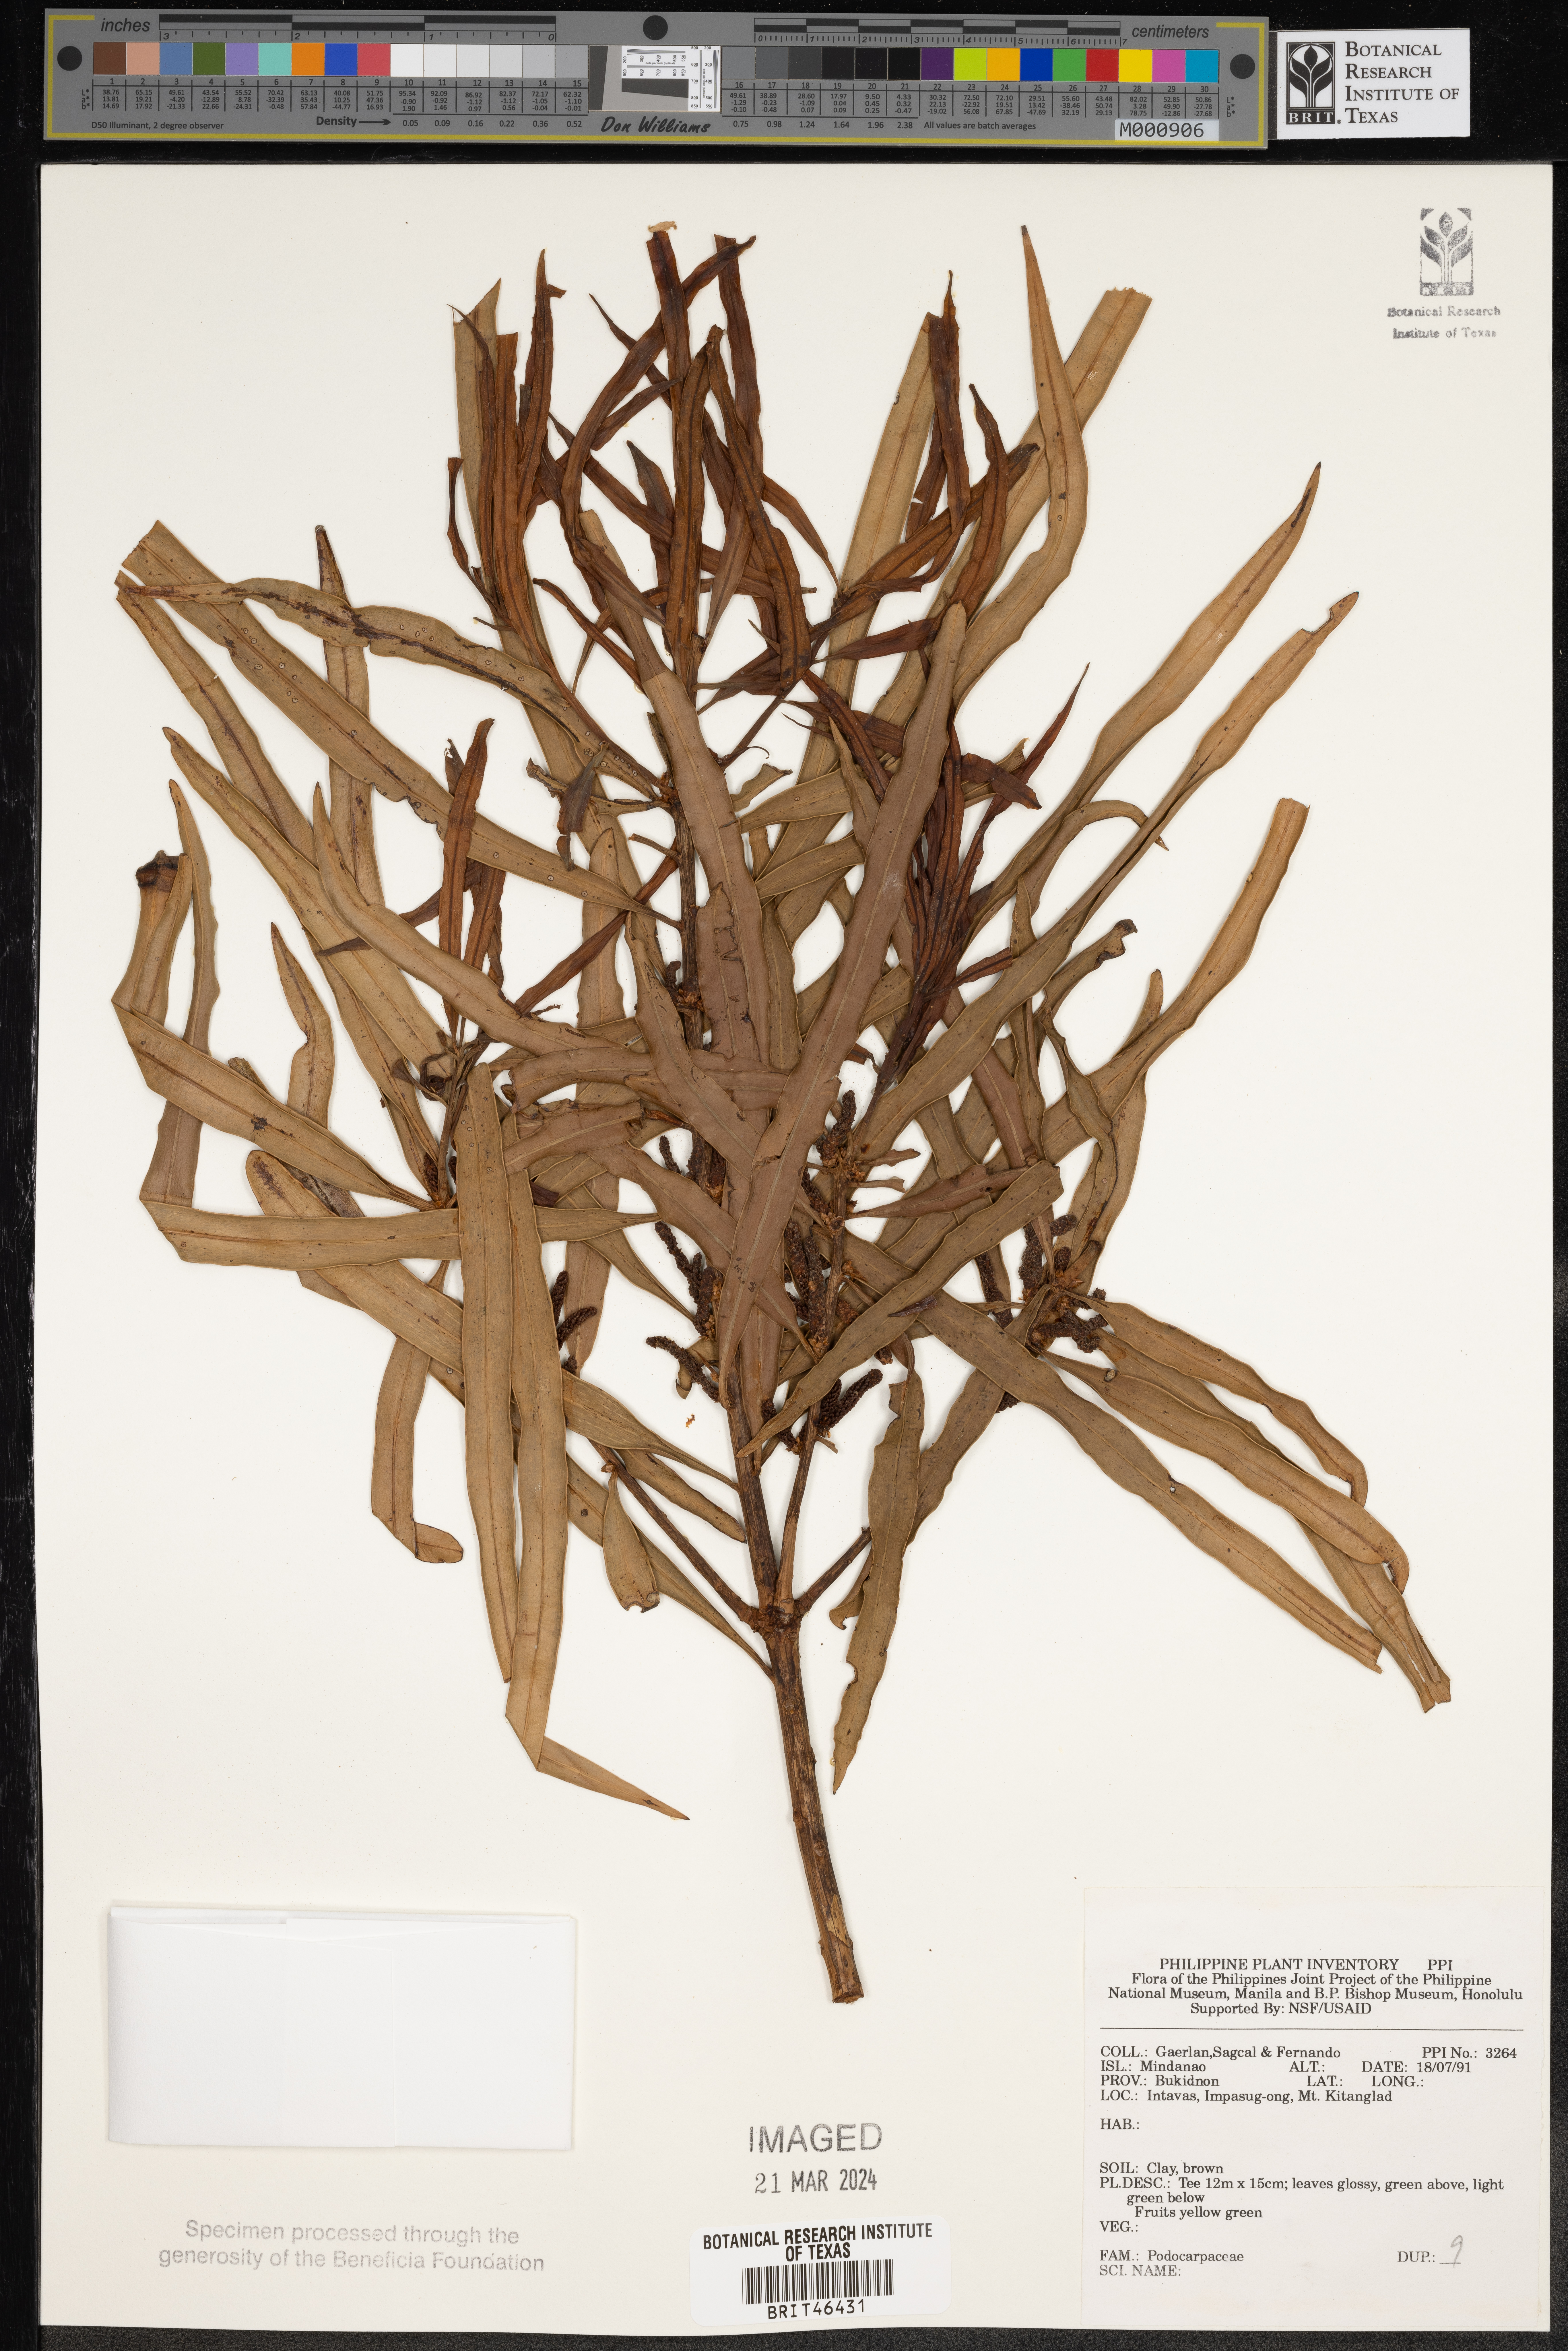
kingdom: Plantae
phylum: Tracheophyta
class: Pinopsida
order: Pinales
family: Podocarpaceae
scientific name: Podocarpaceae
